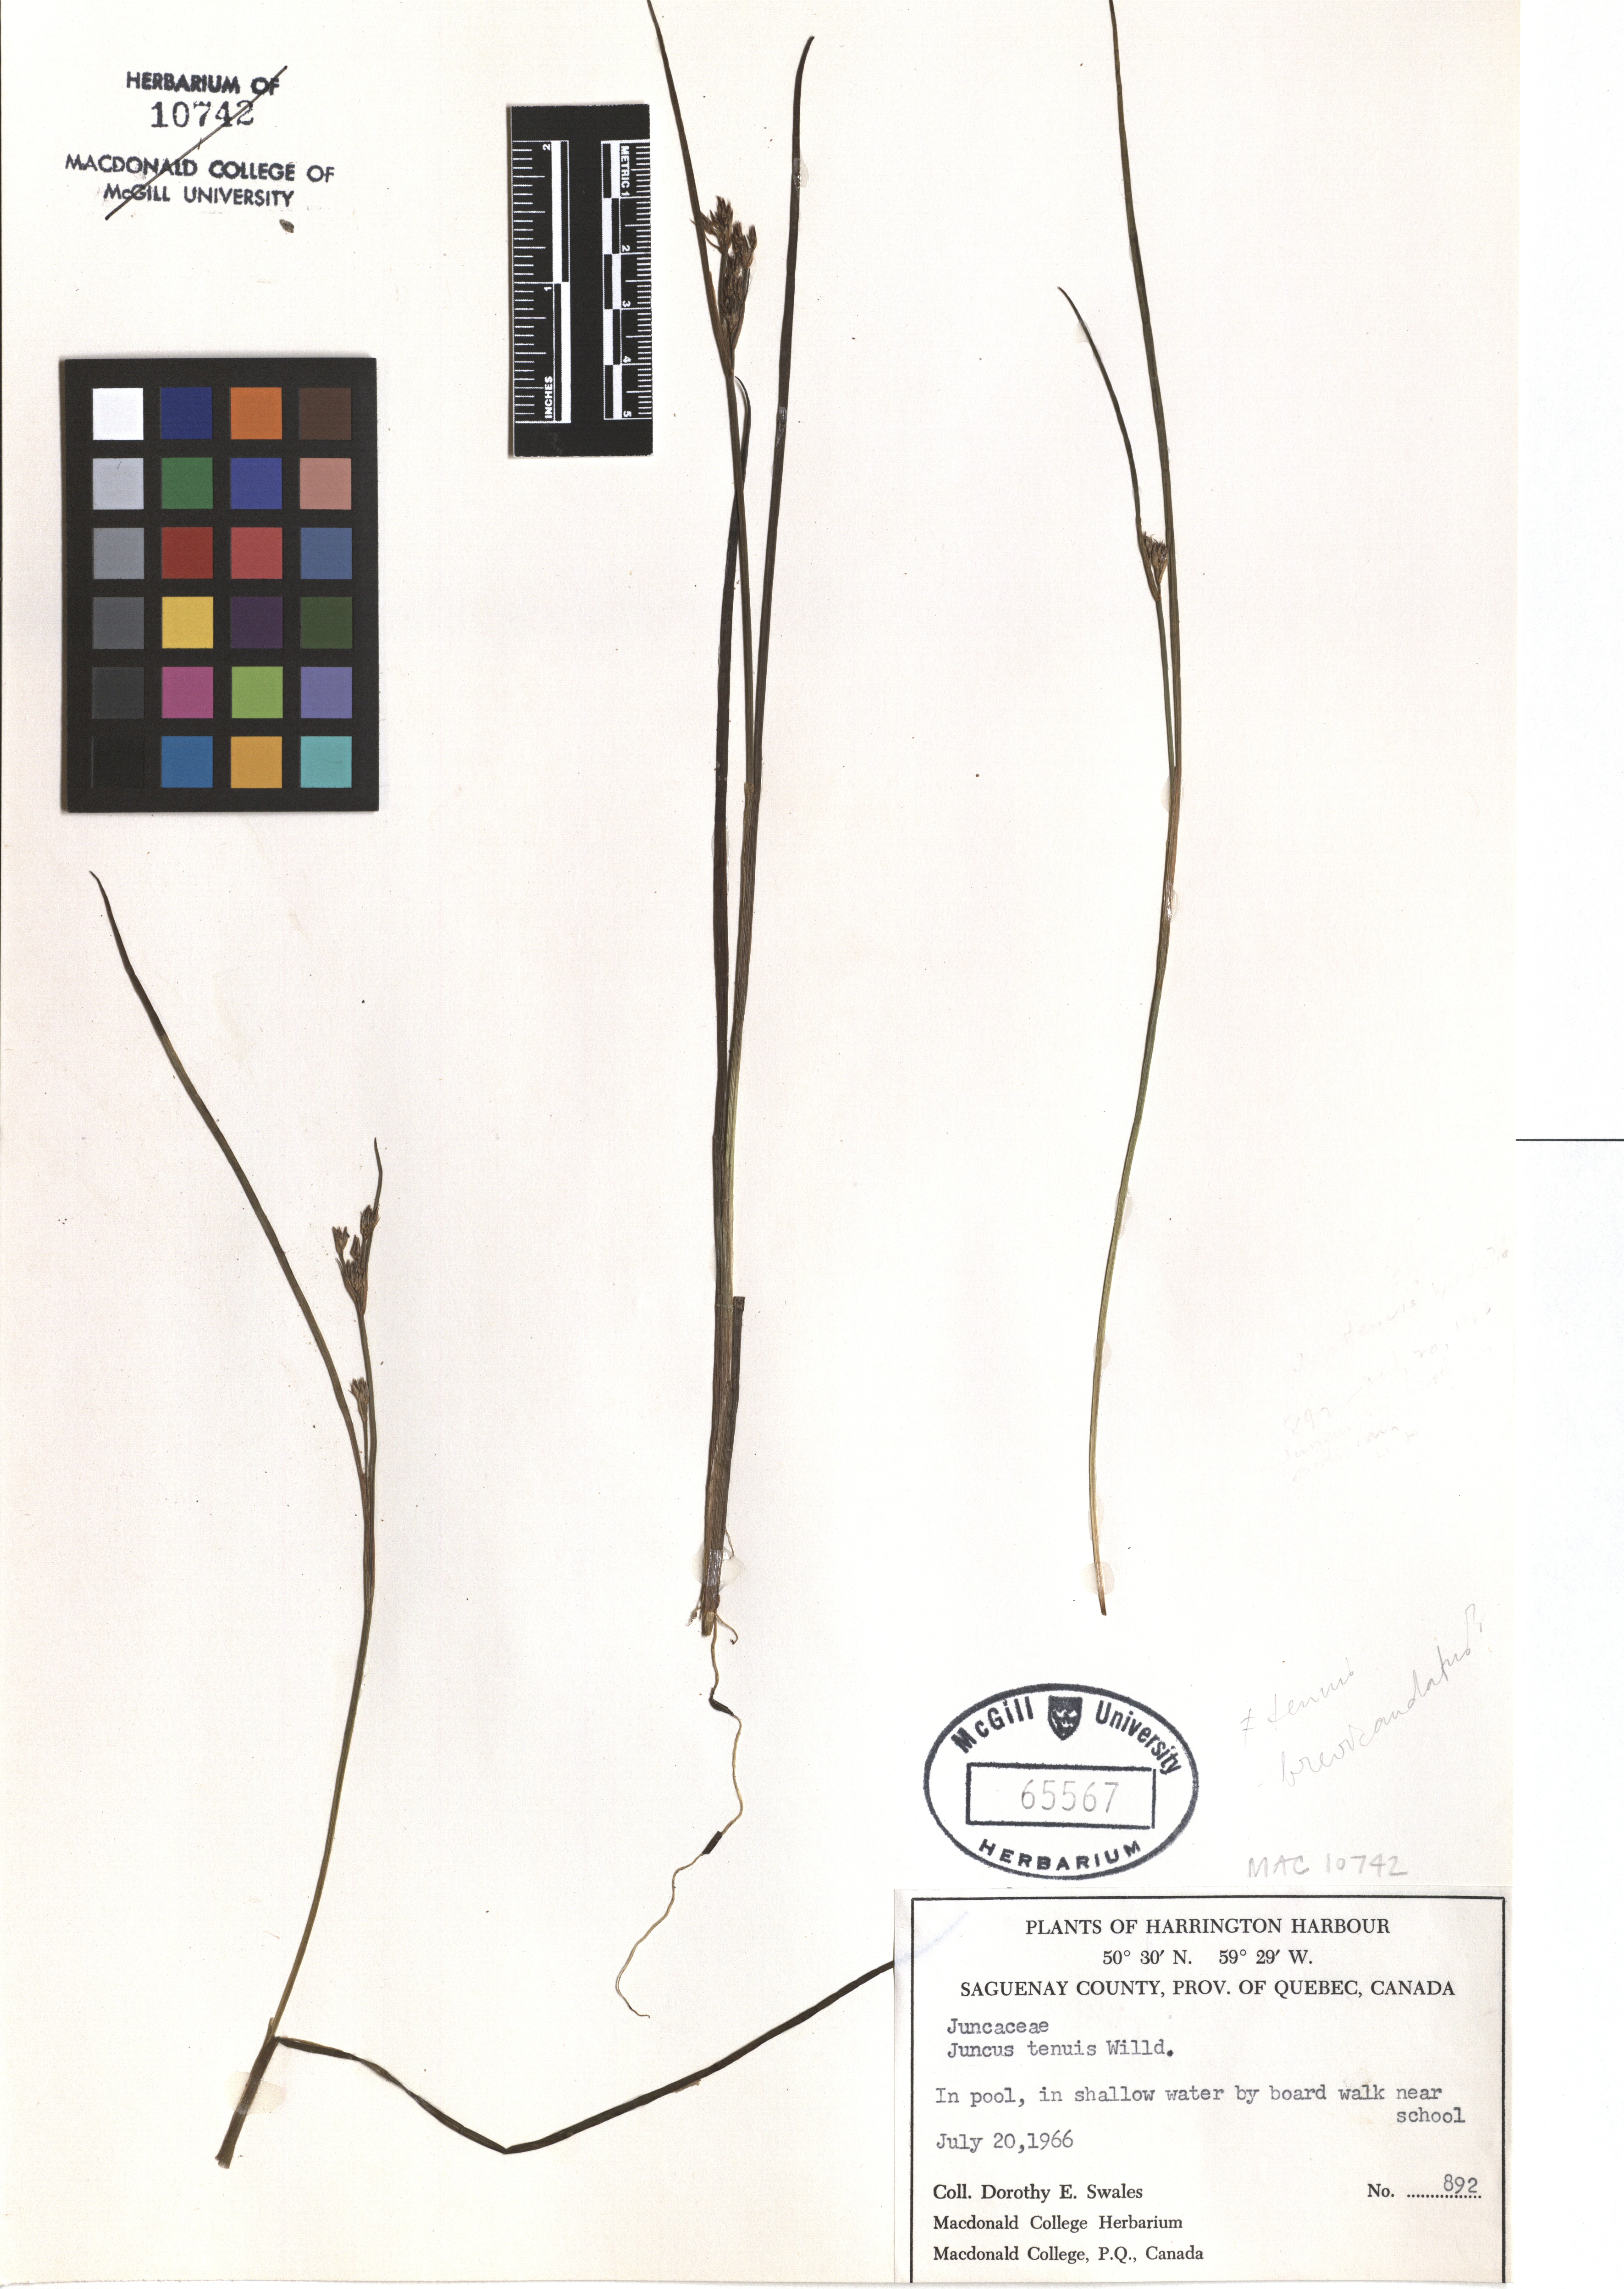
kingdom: Plantae
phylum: Tracheophyta
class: Liliopsida
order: Poales
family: Juncaceae
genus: Juncus
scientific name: Juncus tenuis
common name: Slender rush
